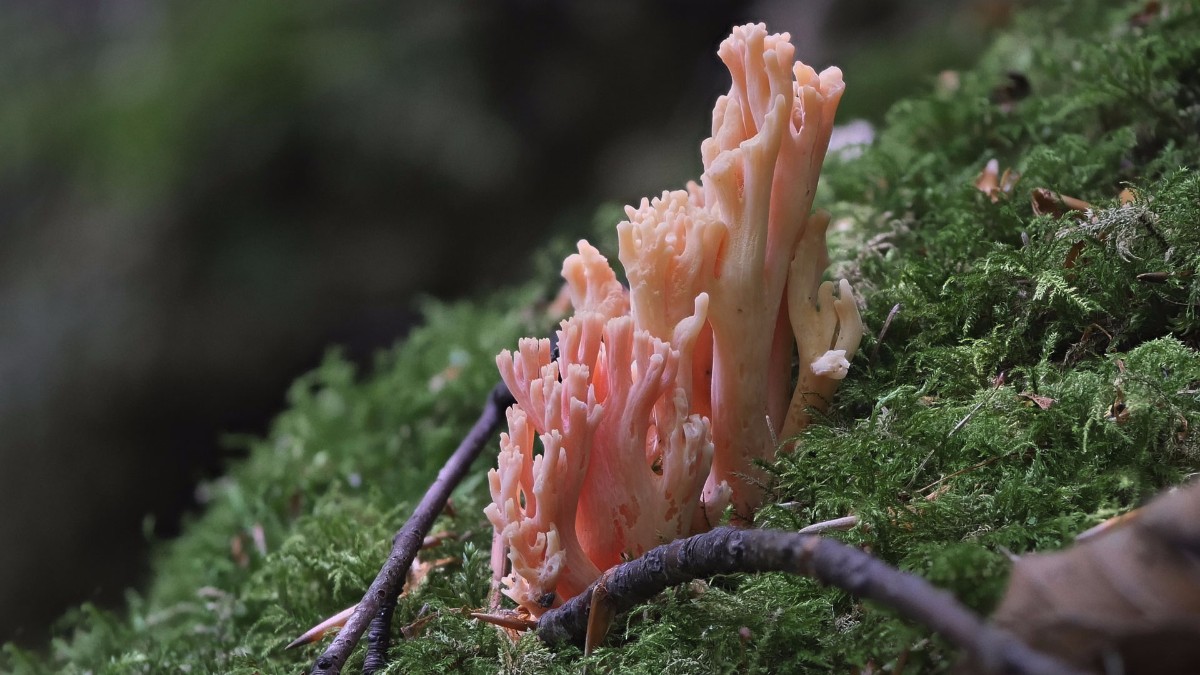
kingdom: Fungi
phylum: Basidiomycota
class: Agaricomycetes
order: Gomphales
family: Gomphaceae
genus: Ramaria
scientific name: Ramaria fagetorum
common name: abrikos-koralsvamp
